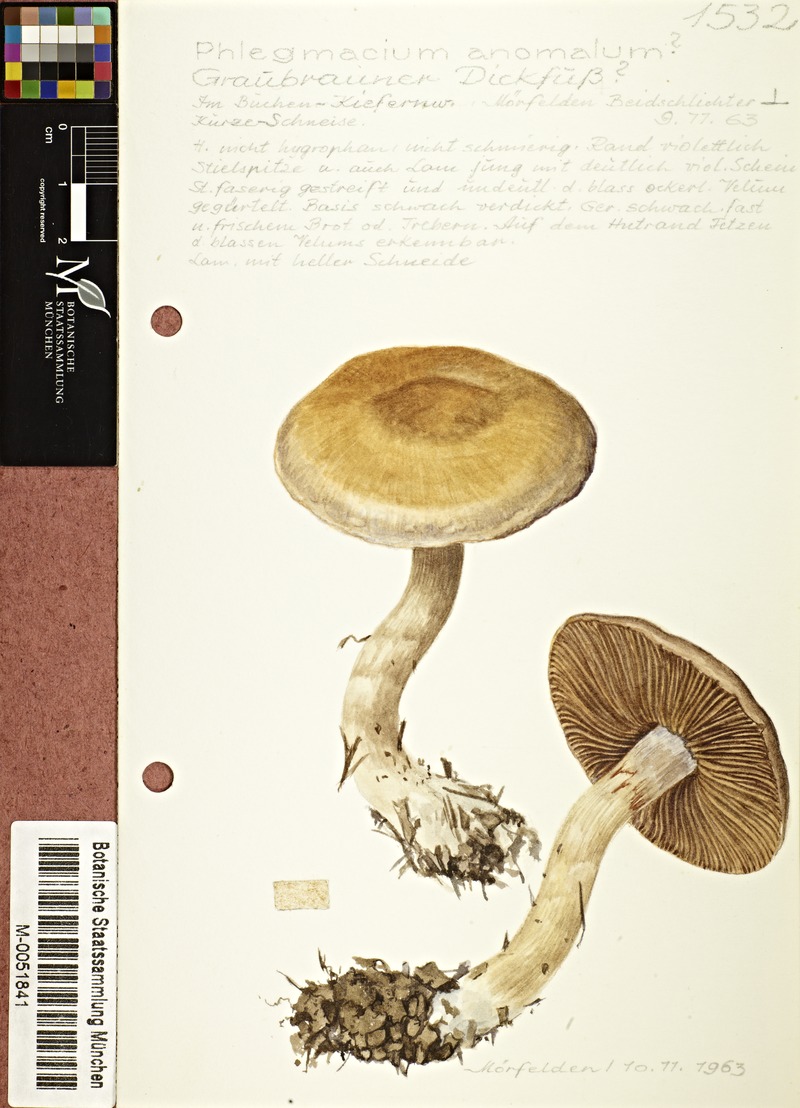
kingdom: Fungi
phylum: Basidiomycota
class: Agaricomycetes
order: Agaricales
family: Cortinariaceae
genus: Cortinarius
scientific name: Cortinarius anomalus
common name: Variable webcap
